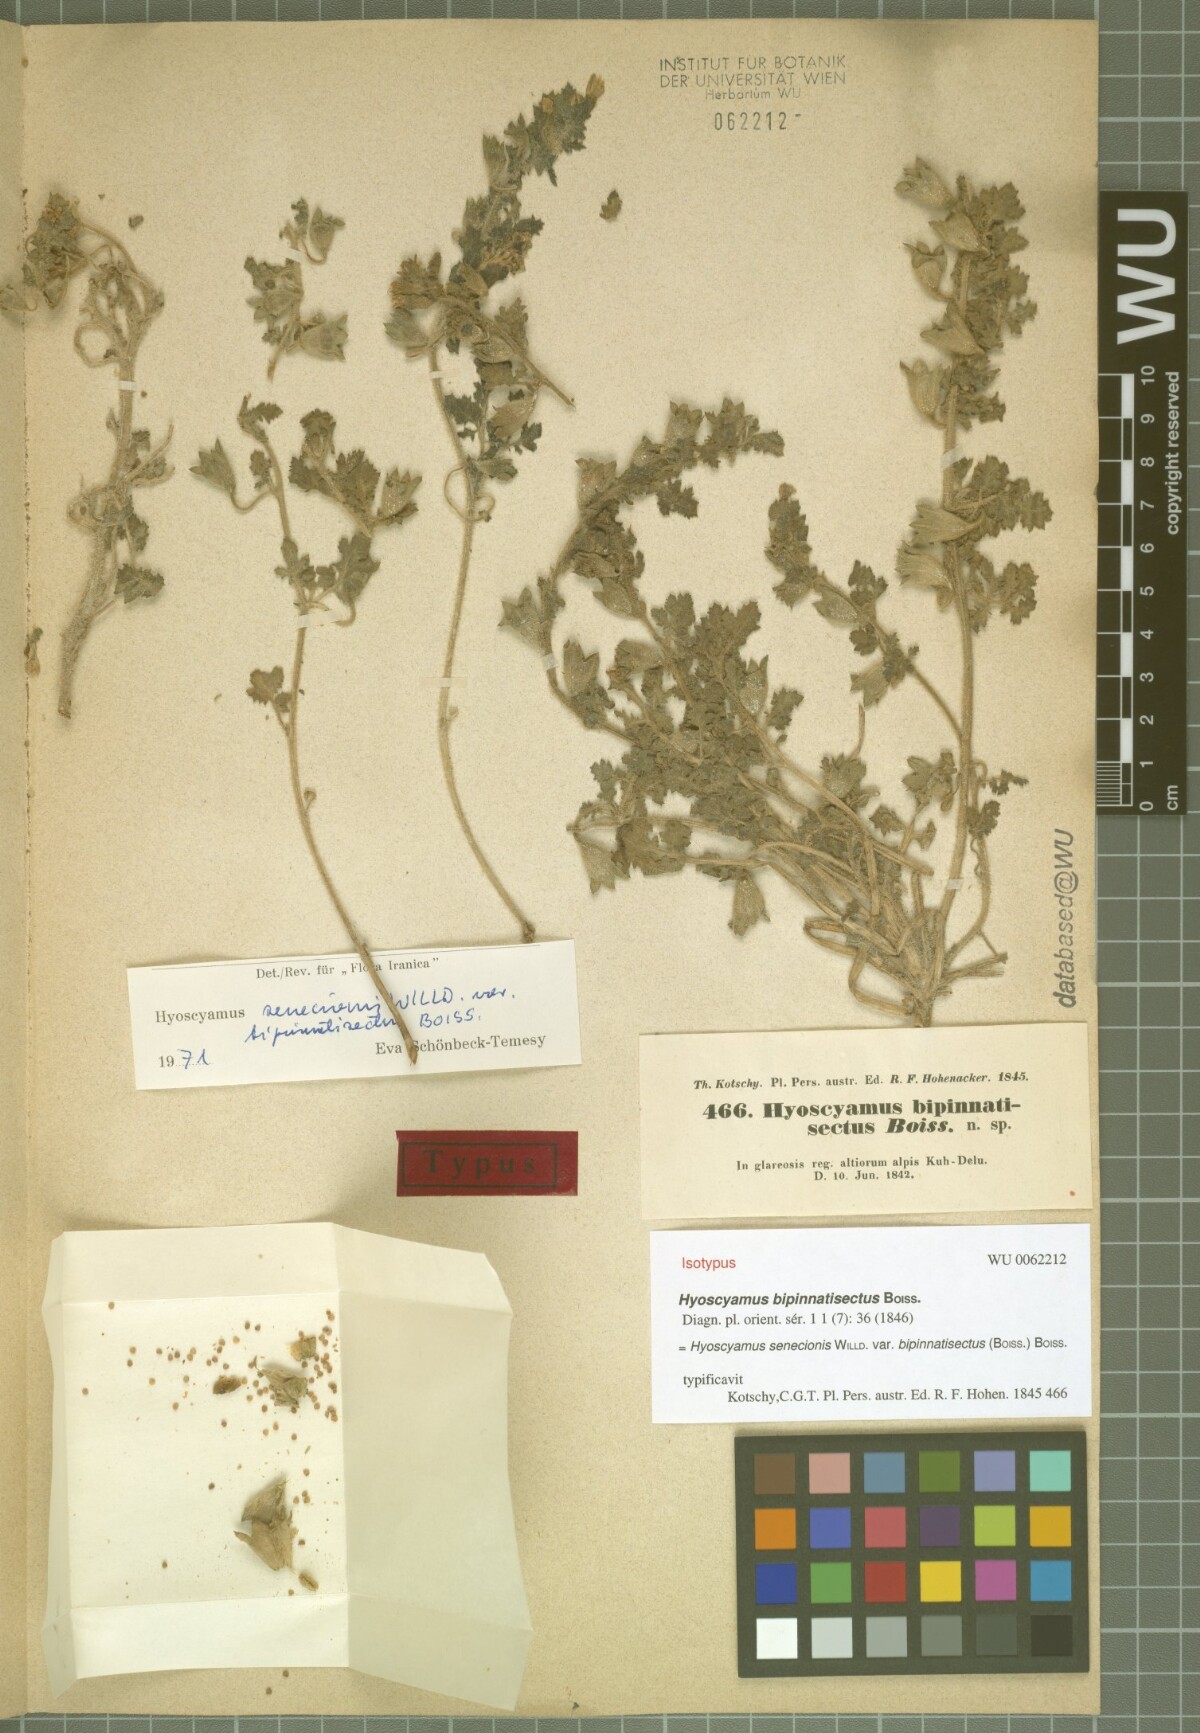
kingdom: Plantae
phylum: Tracheophyta
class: Magnoliopsida
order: Solanales
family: Solanaceae
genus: Hyoscyamus
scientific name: Hyoscyamus senecionis
